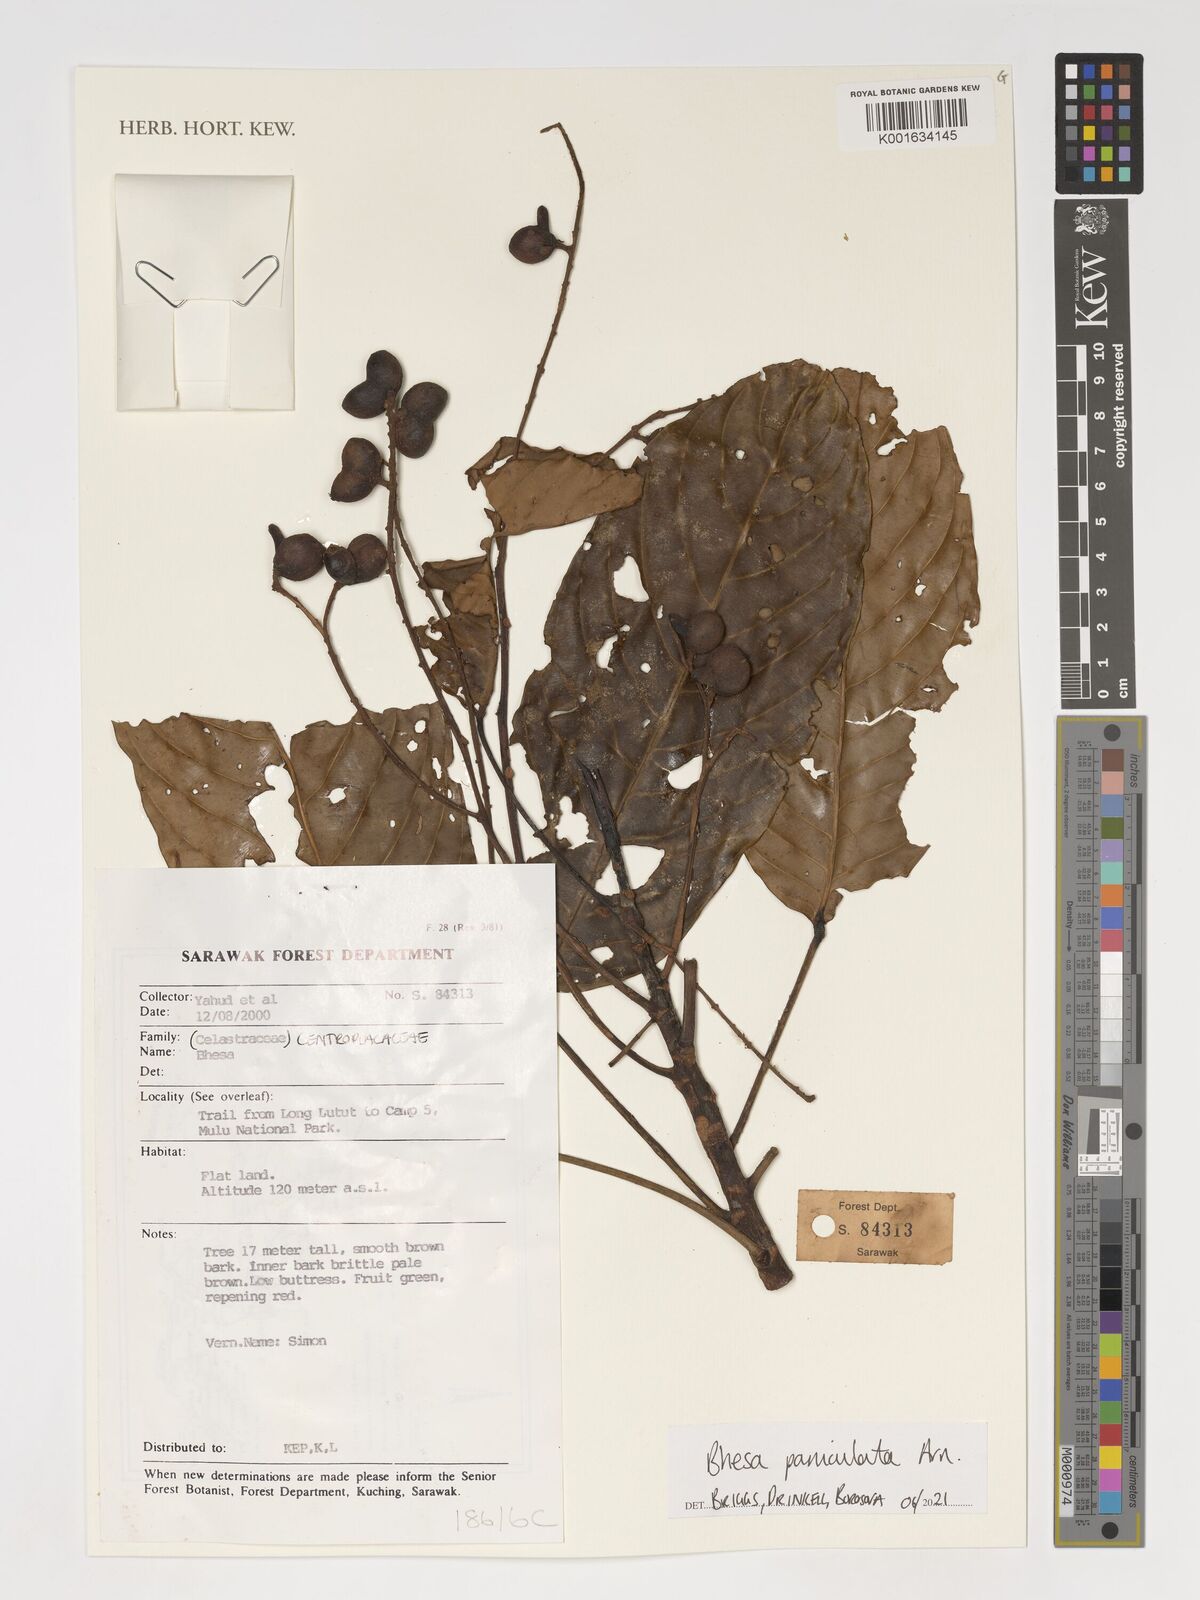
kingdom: Plantae
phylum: Tracheophyta
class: Magnoliopsida
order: Malpighiales
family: Centroplacaceae
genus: Bhesa
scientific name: Bhesa paniculata
